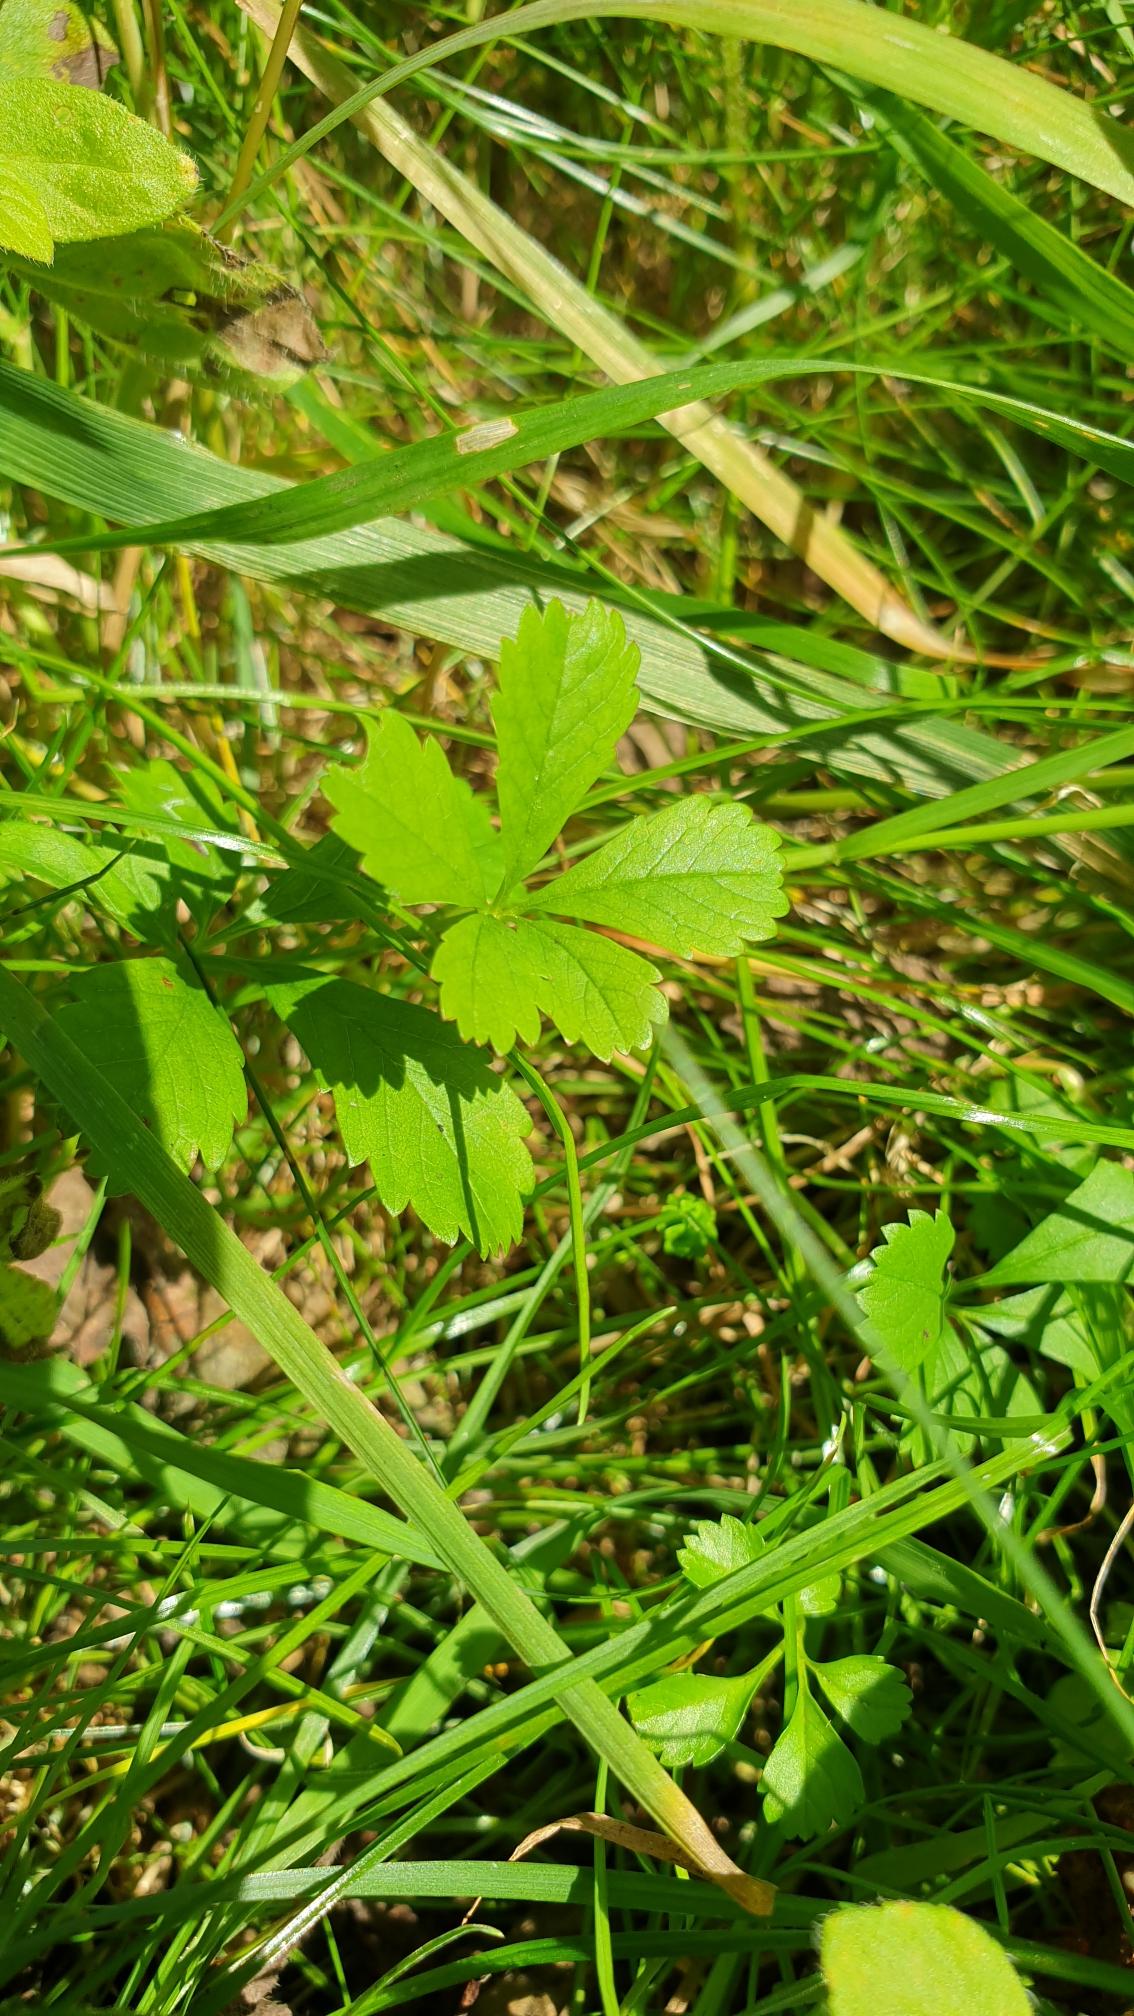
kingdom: Plantae
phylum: Tracheophyta
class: Magnoliopsida
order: Rosales
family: Rosaceae
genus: Potentilla
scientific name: Potentilla reptans
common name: Krybende potentil
